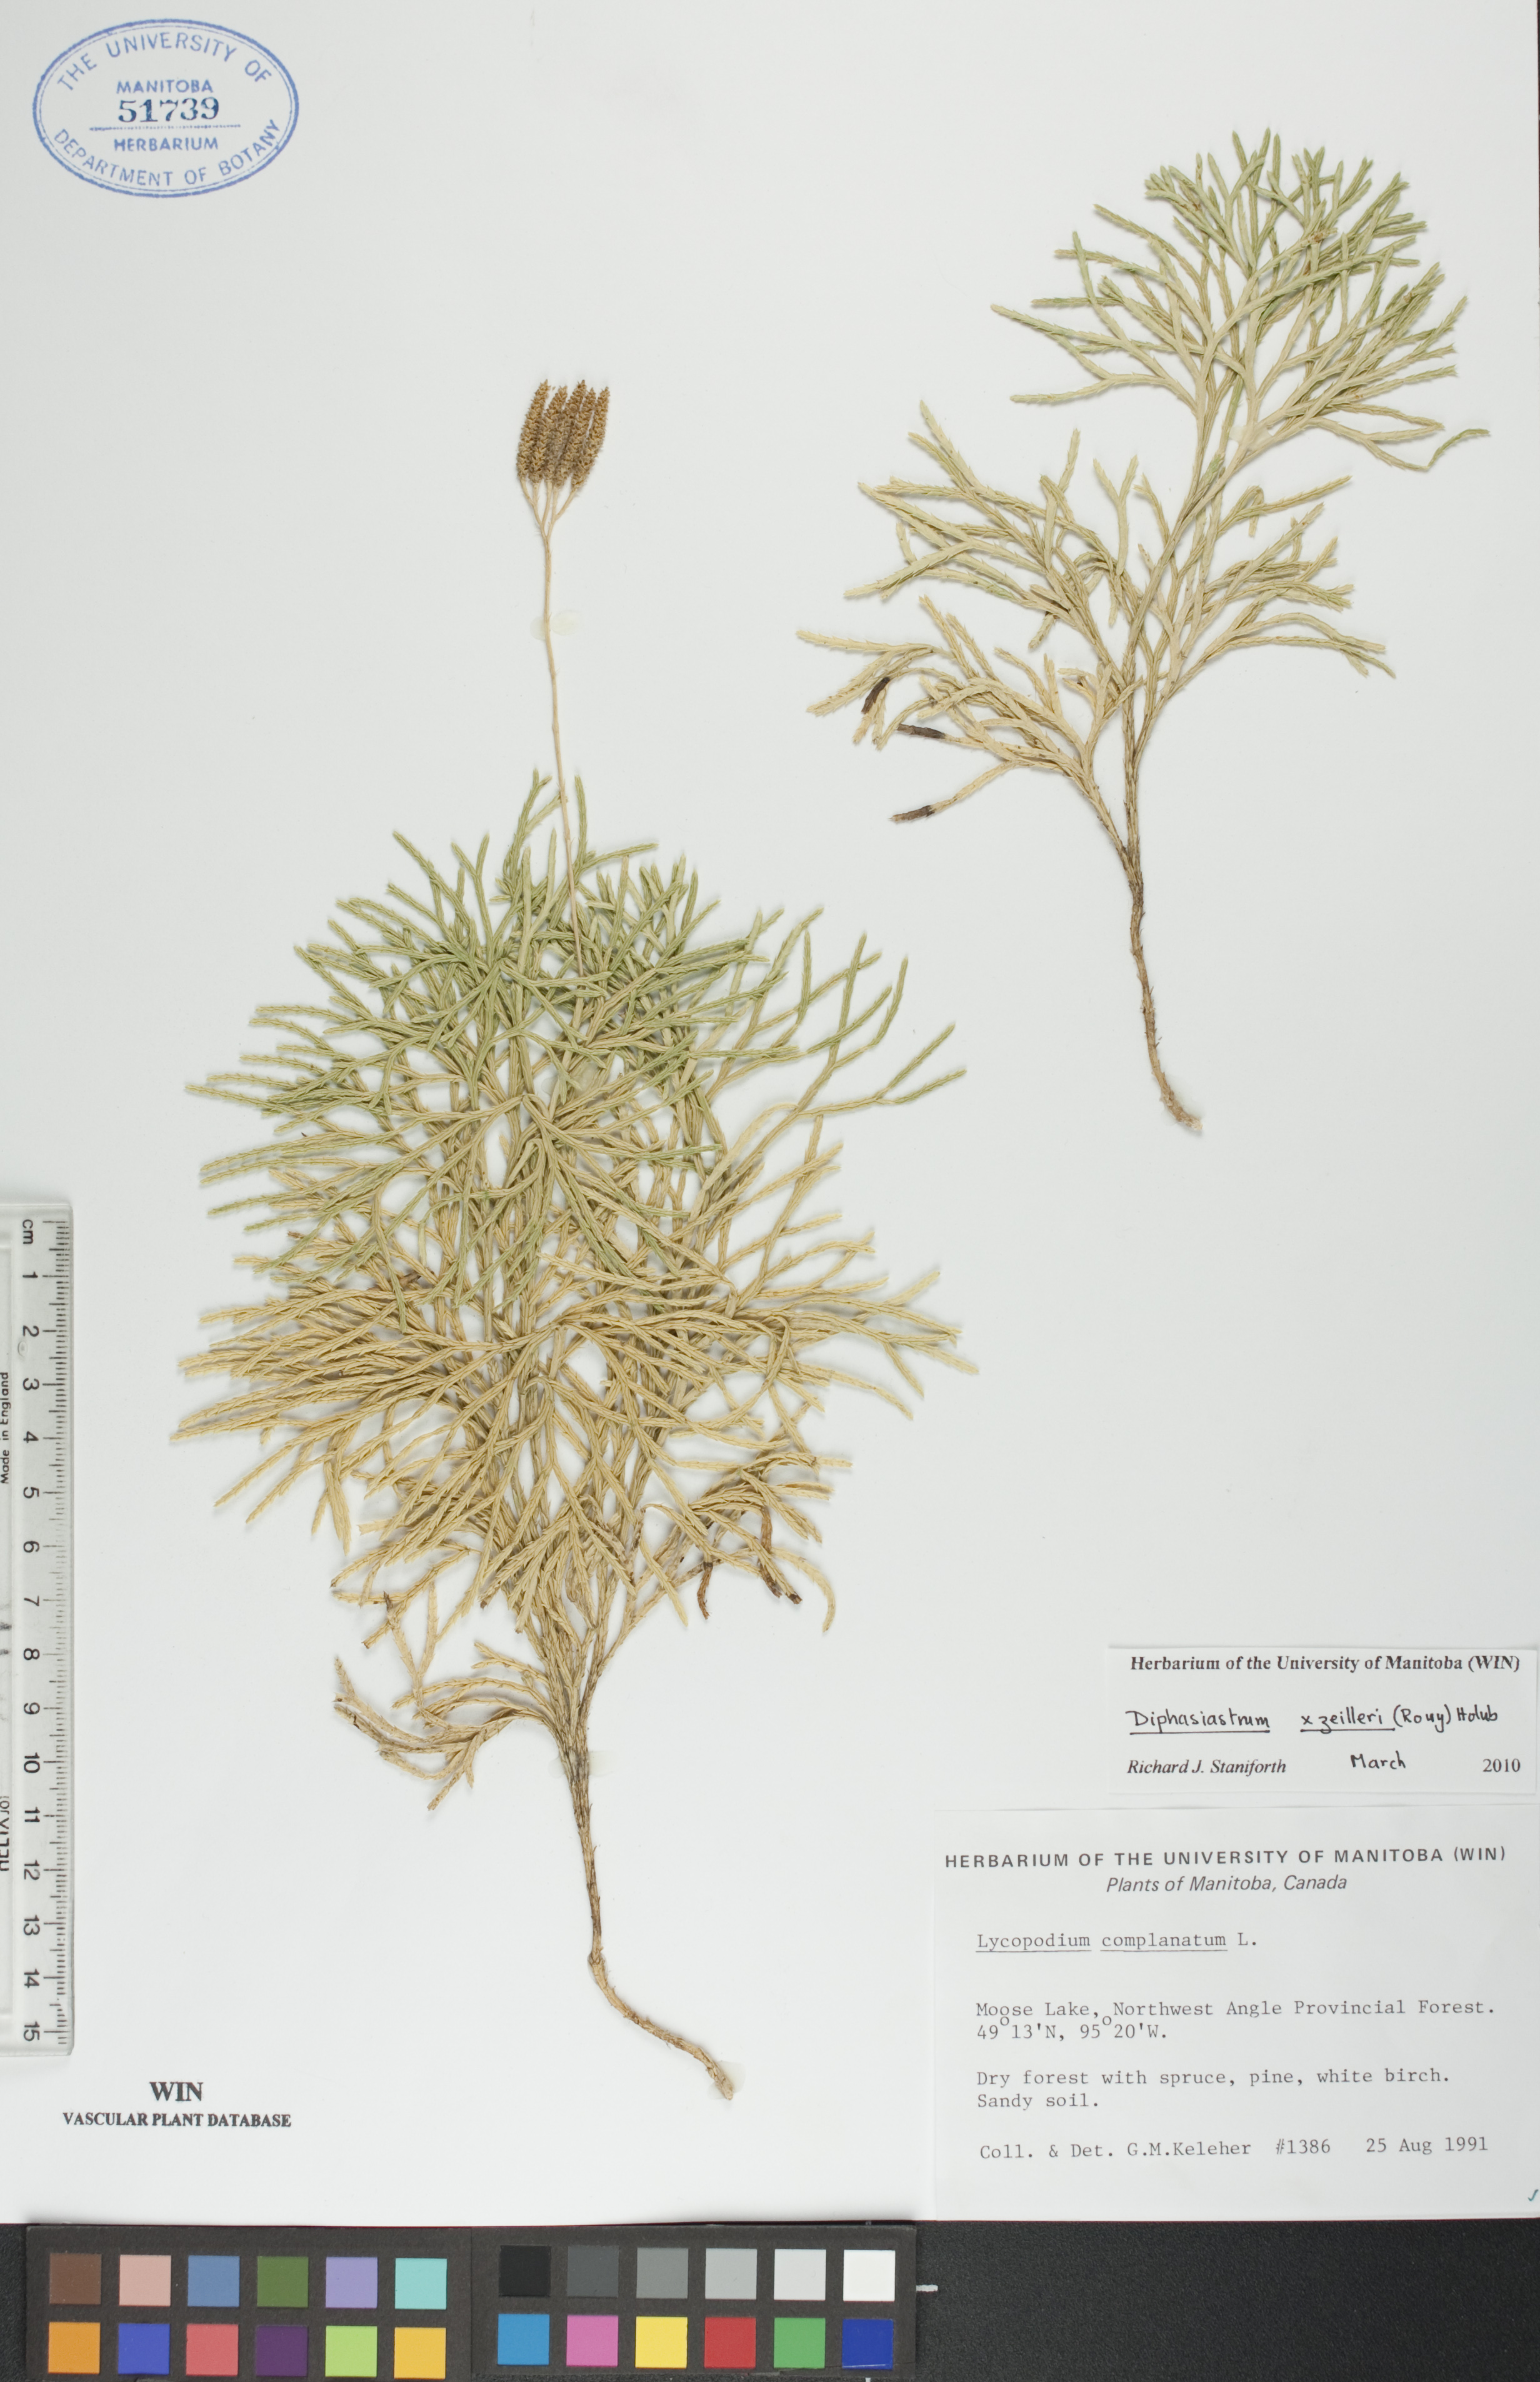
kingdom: Plantae
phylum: Tracheophyta
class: Lycopodiopsida
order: Lycopodiales
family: Lycopodiaceae
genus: Diphasiastrum
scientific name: Diphasiastrum zeilleri
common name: Zeiller's clubmoss
